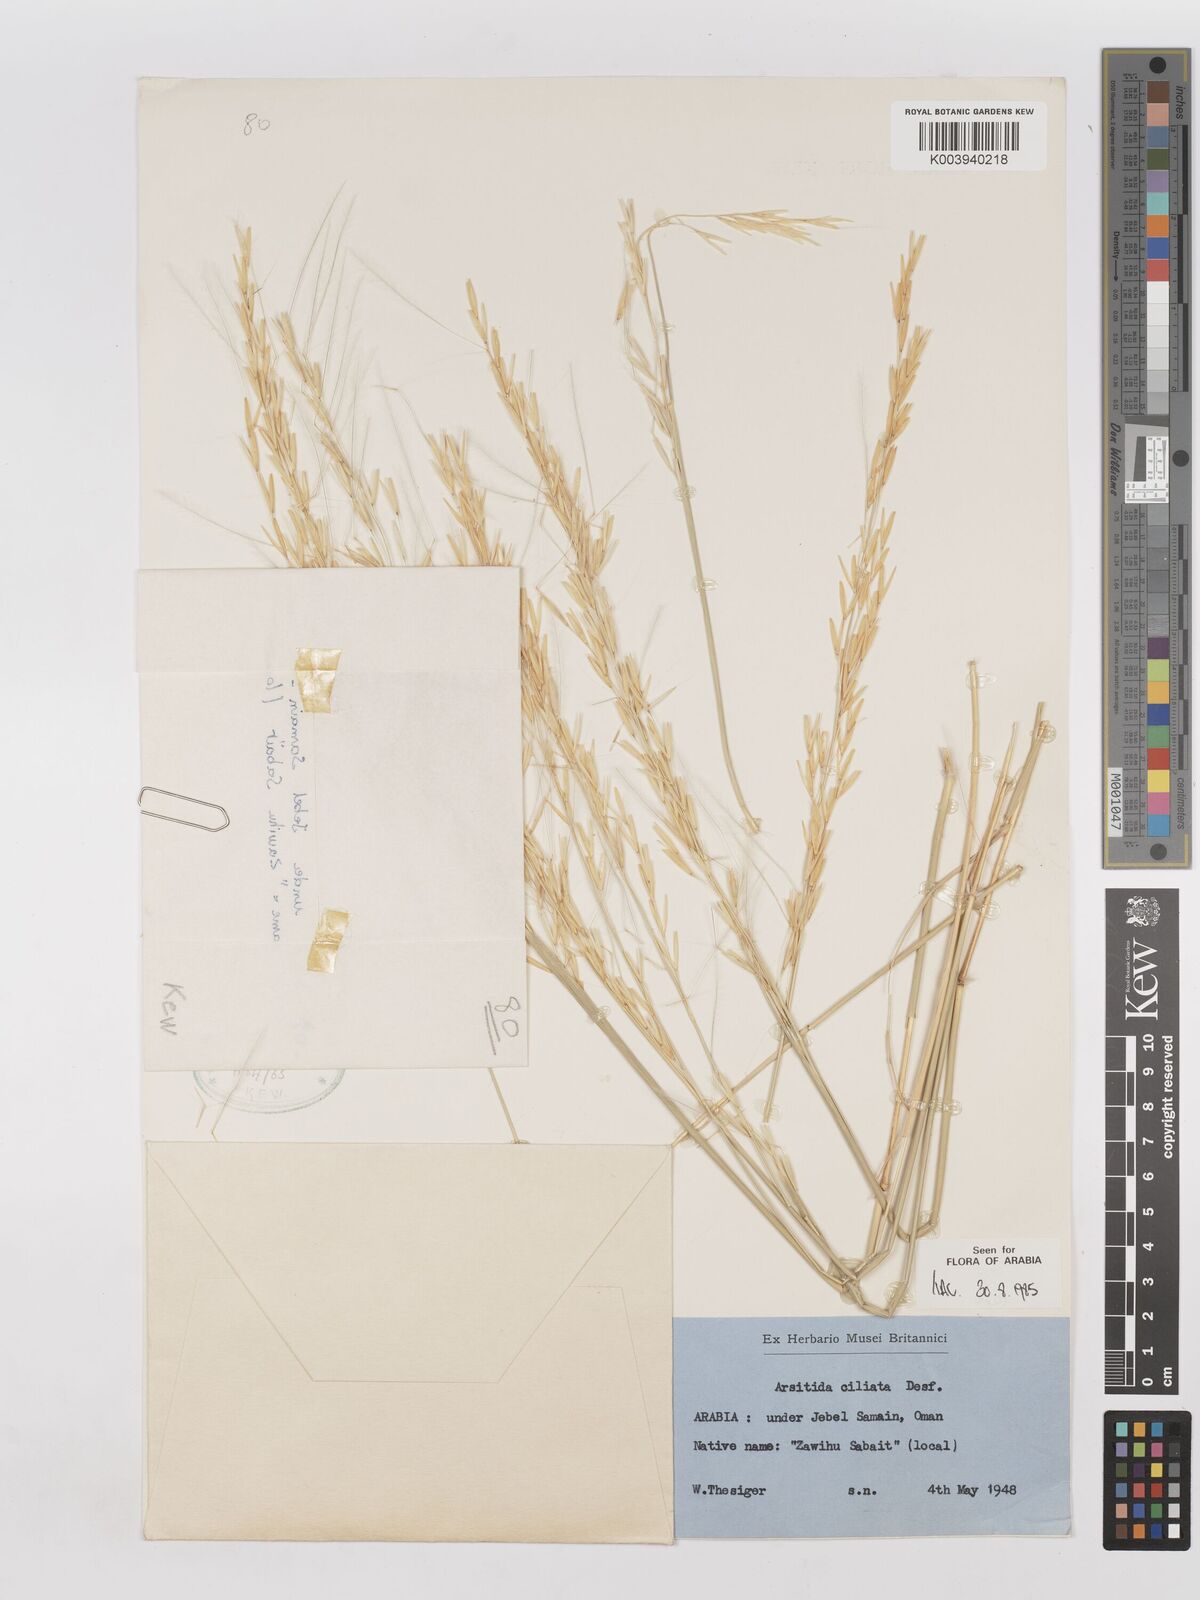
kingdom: Plantae
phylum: Tracheophyta
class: Liliopsida
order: Poales
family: Poaceae
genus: Stipagrostis
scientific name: Stipagrostis ciliata
